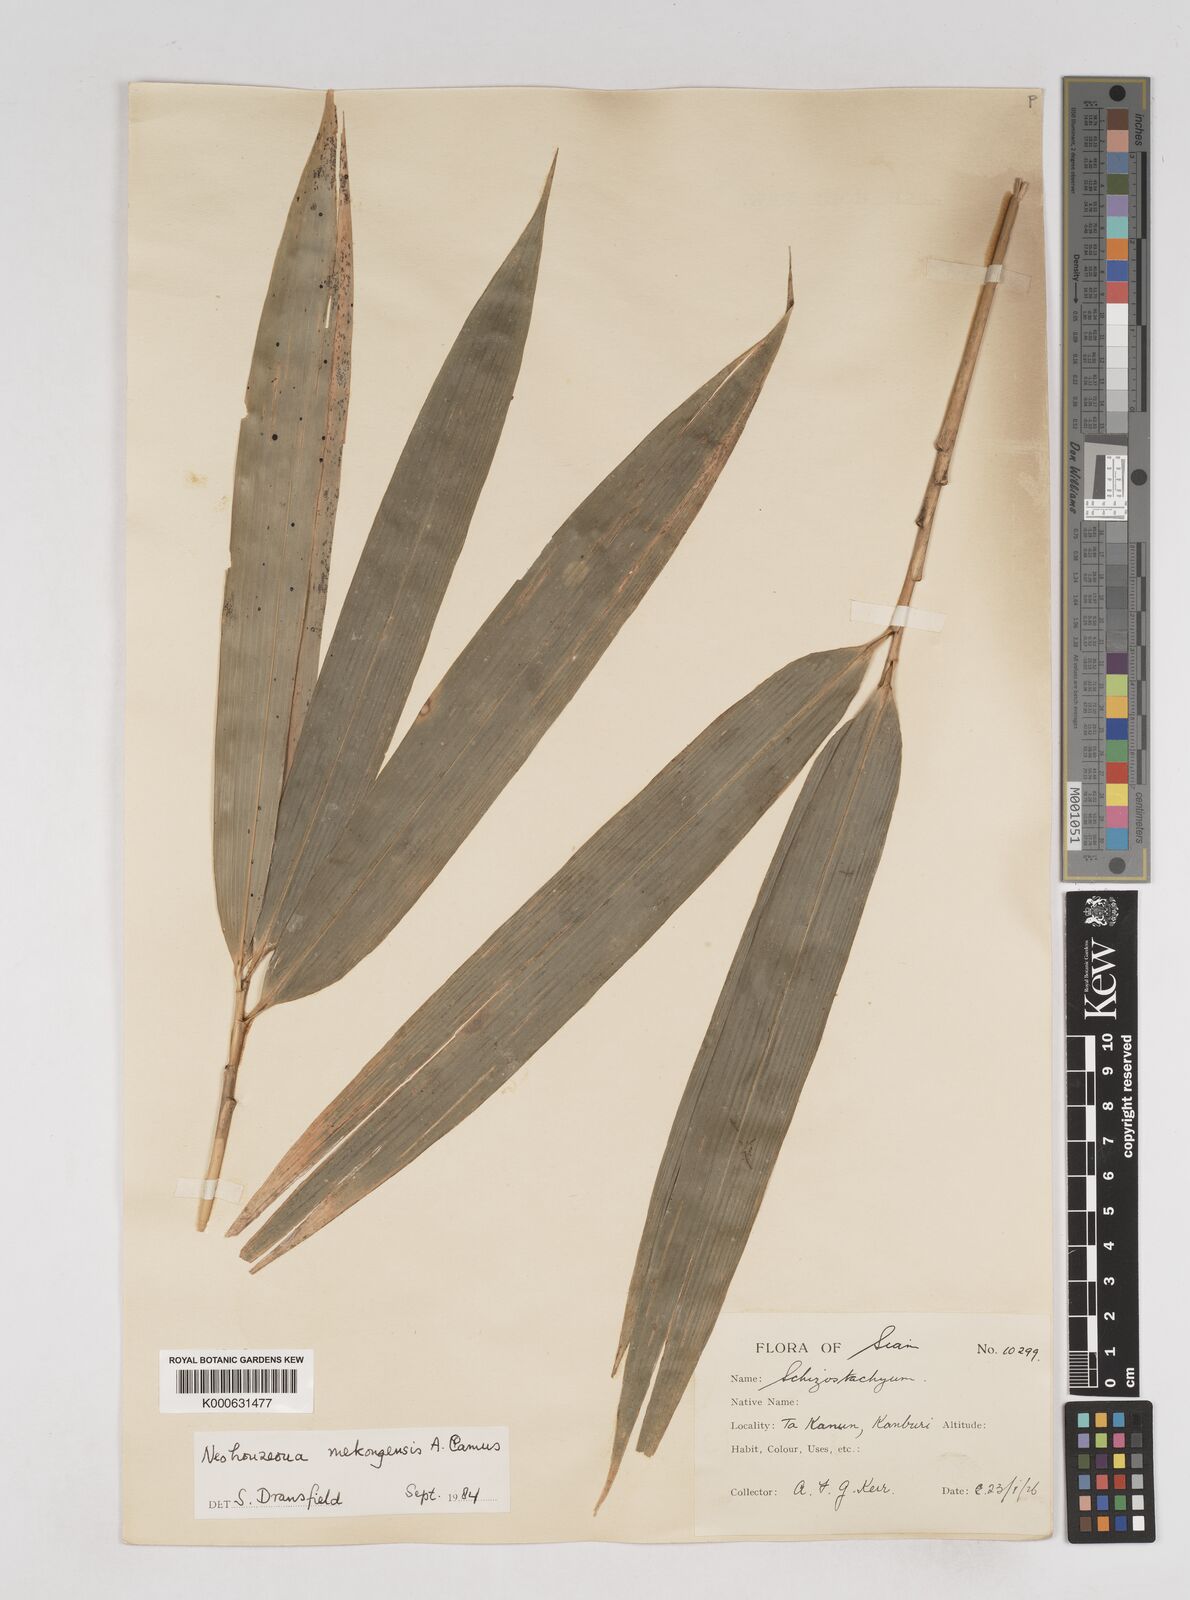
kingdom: Plantae
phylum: Tracheophyta
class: Liliopsida
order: Poales
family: Poaceae
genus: Schizostachyum
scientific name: Schizostachyum mekongensis
